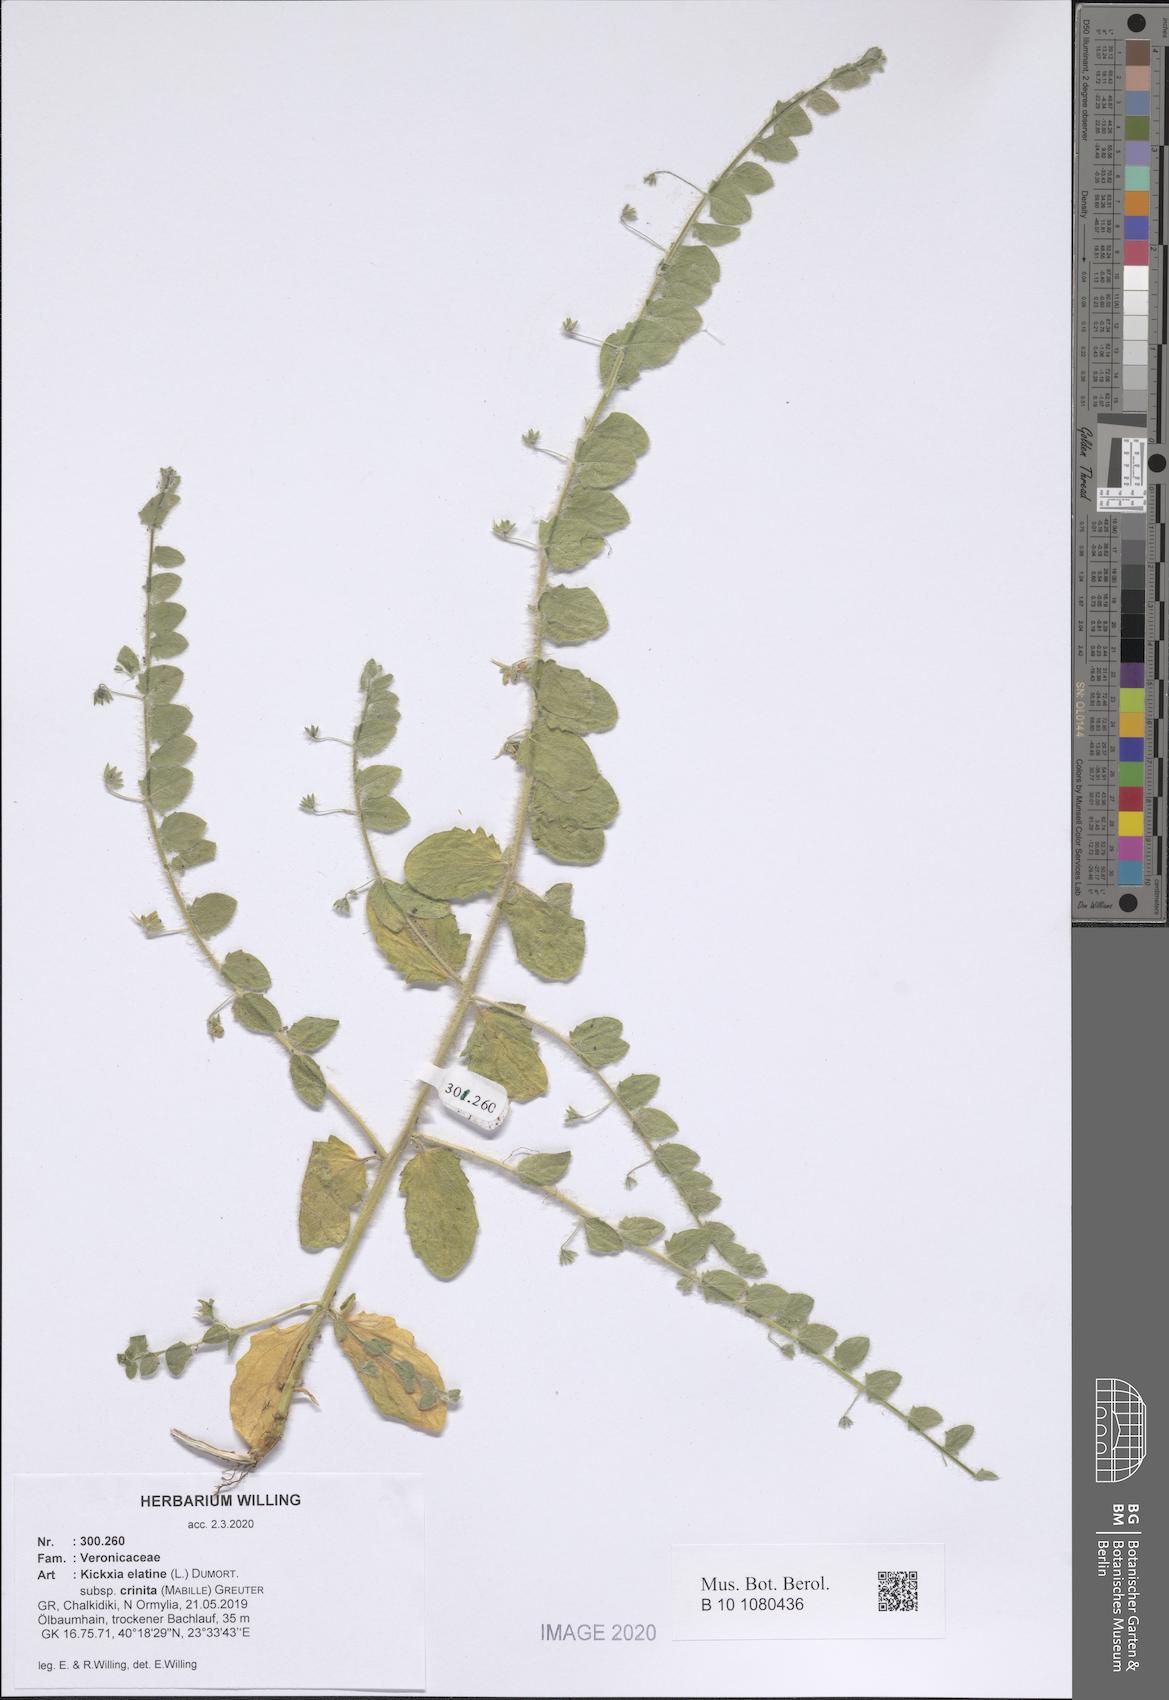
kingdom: Plantae
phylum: Tracheophyta
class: Magnoliopsida
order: Lamiales
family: Plantaginaceae
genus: Kickxia
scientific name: Kickxia elatine
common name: Sharp-leaved fluellen
